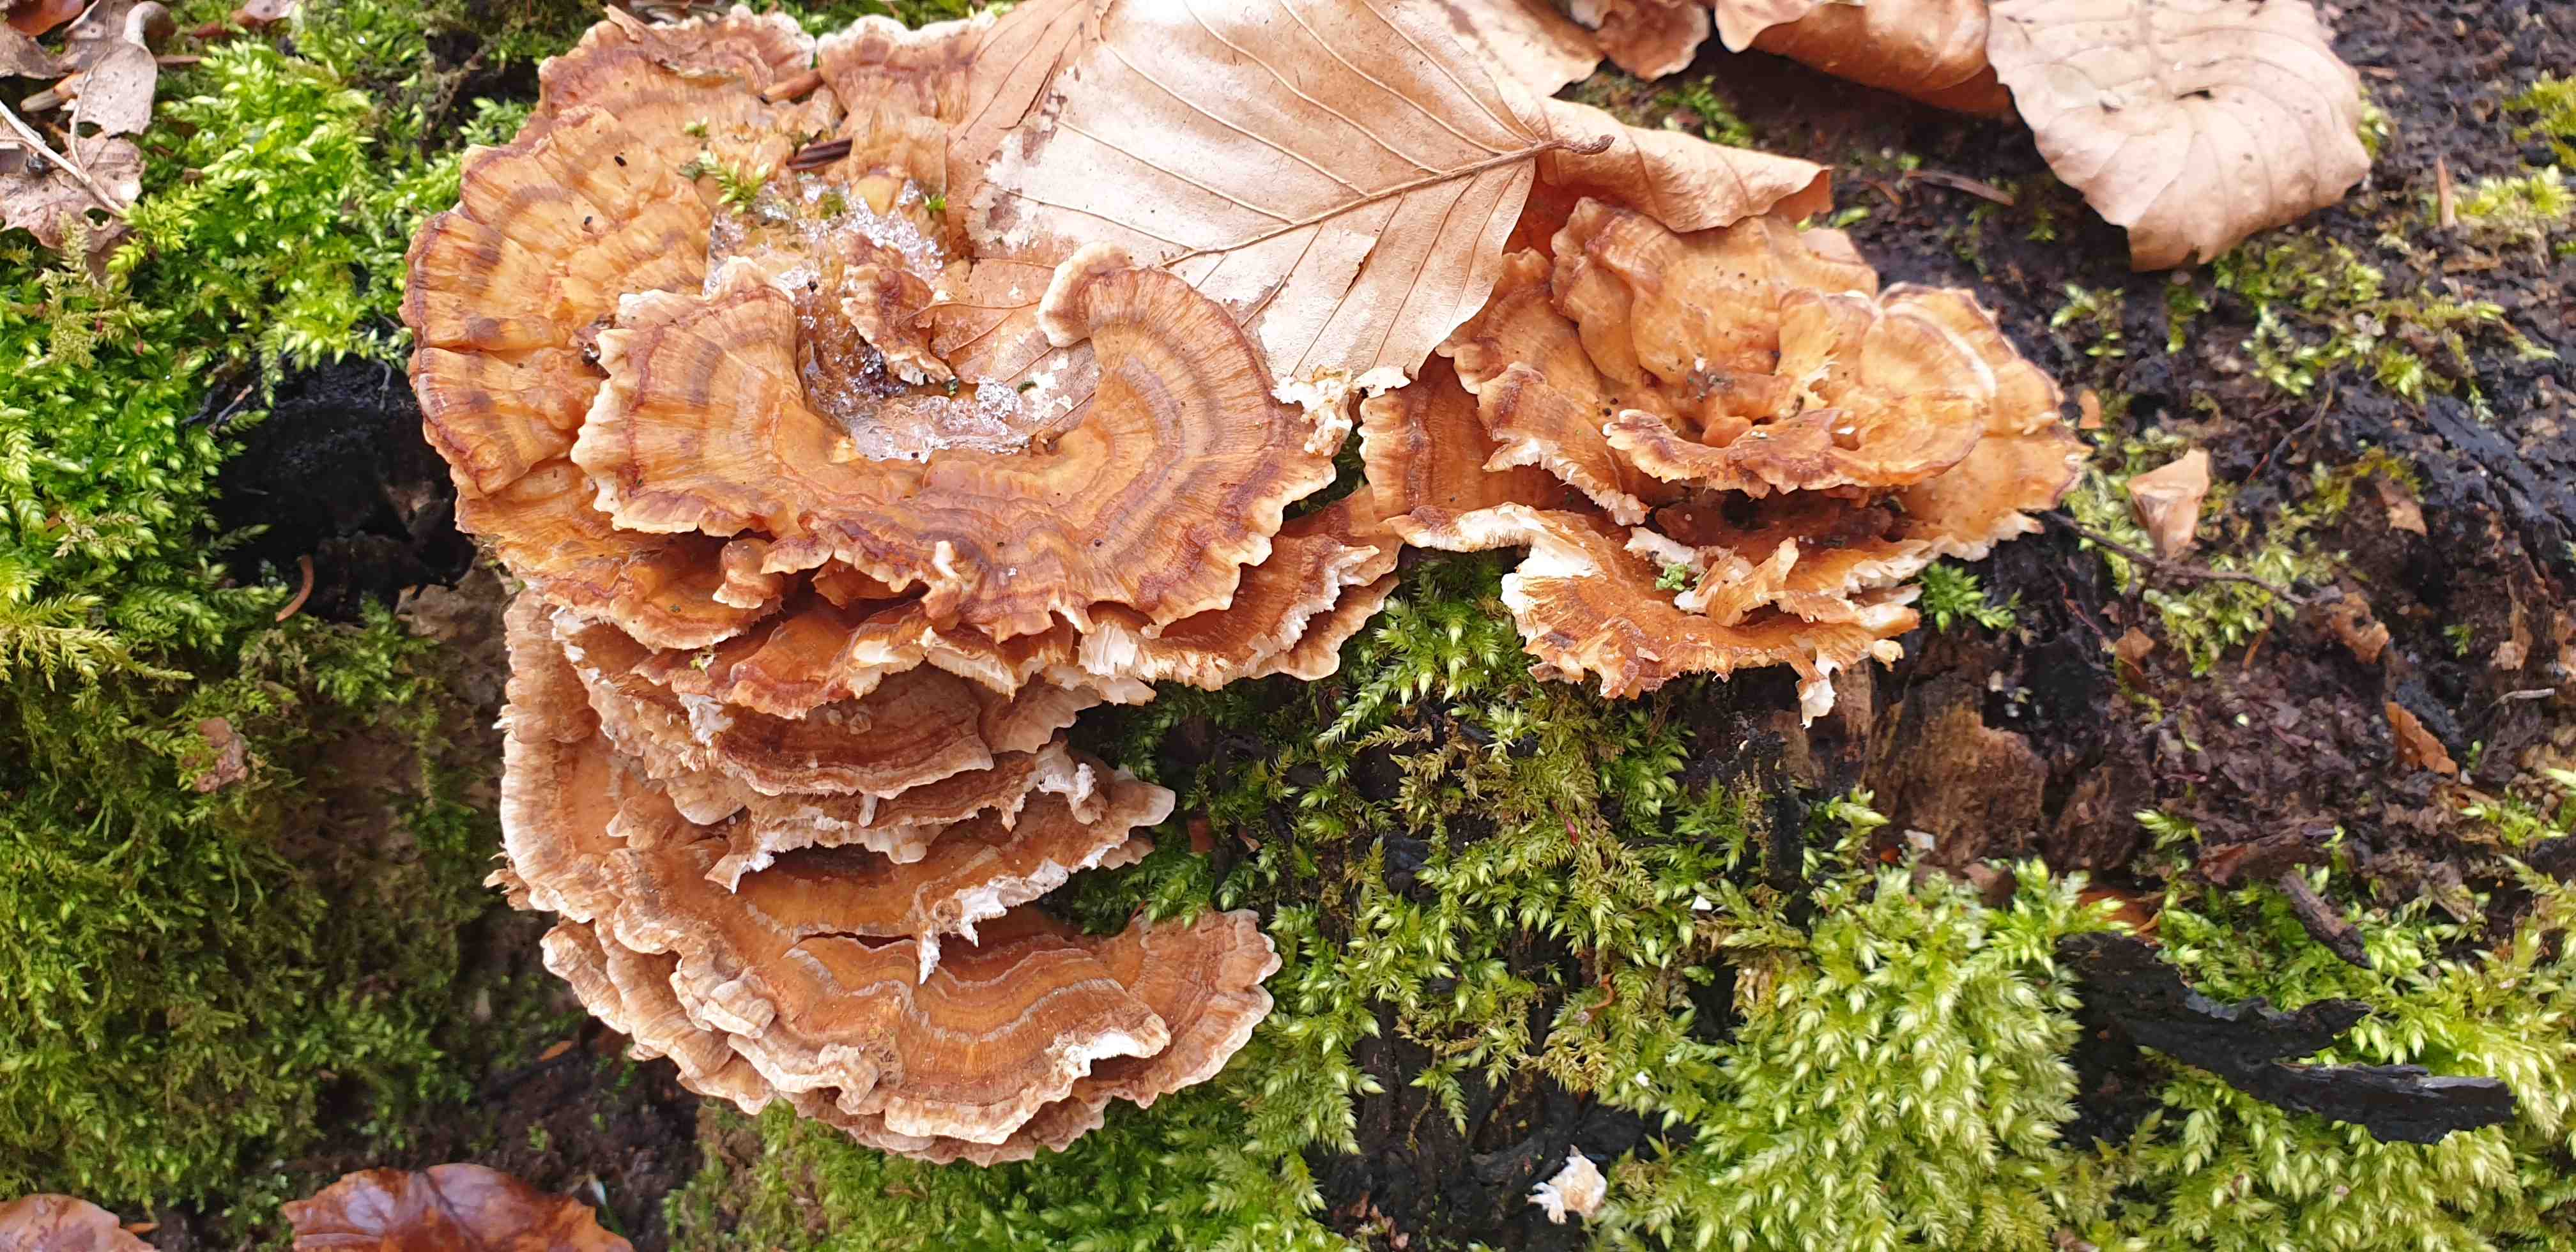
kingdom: Fungi
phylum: Basidiomycota
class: Agaricomycetes
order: Polyporales
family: Polyporaceae
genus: Trametes
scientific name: Trametes versicolor
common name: broget læderporesvamp
